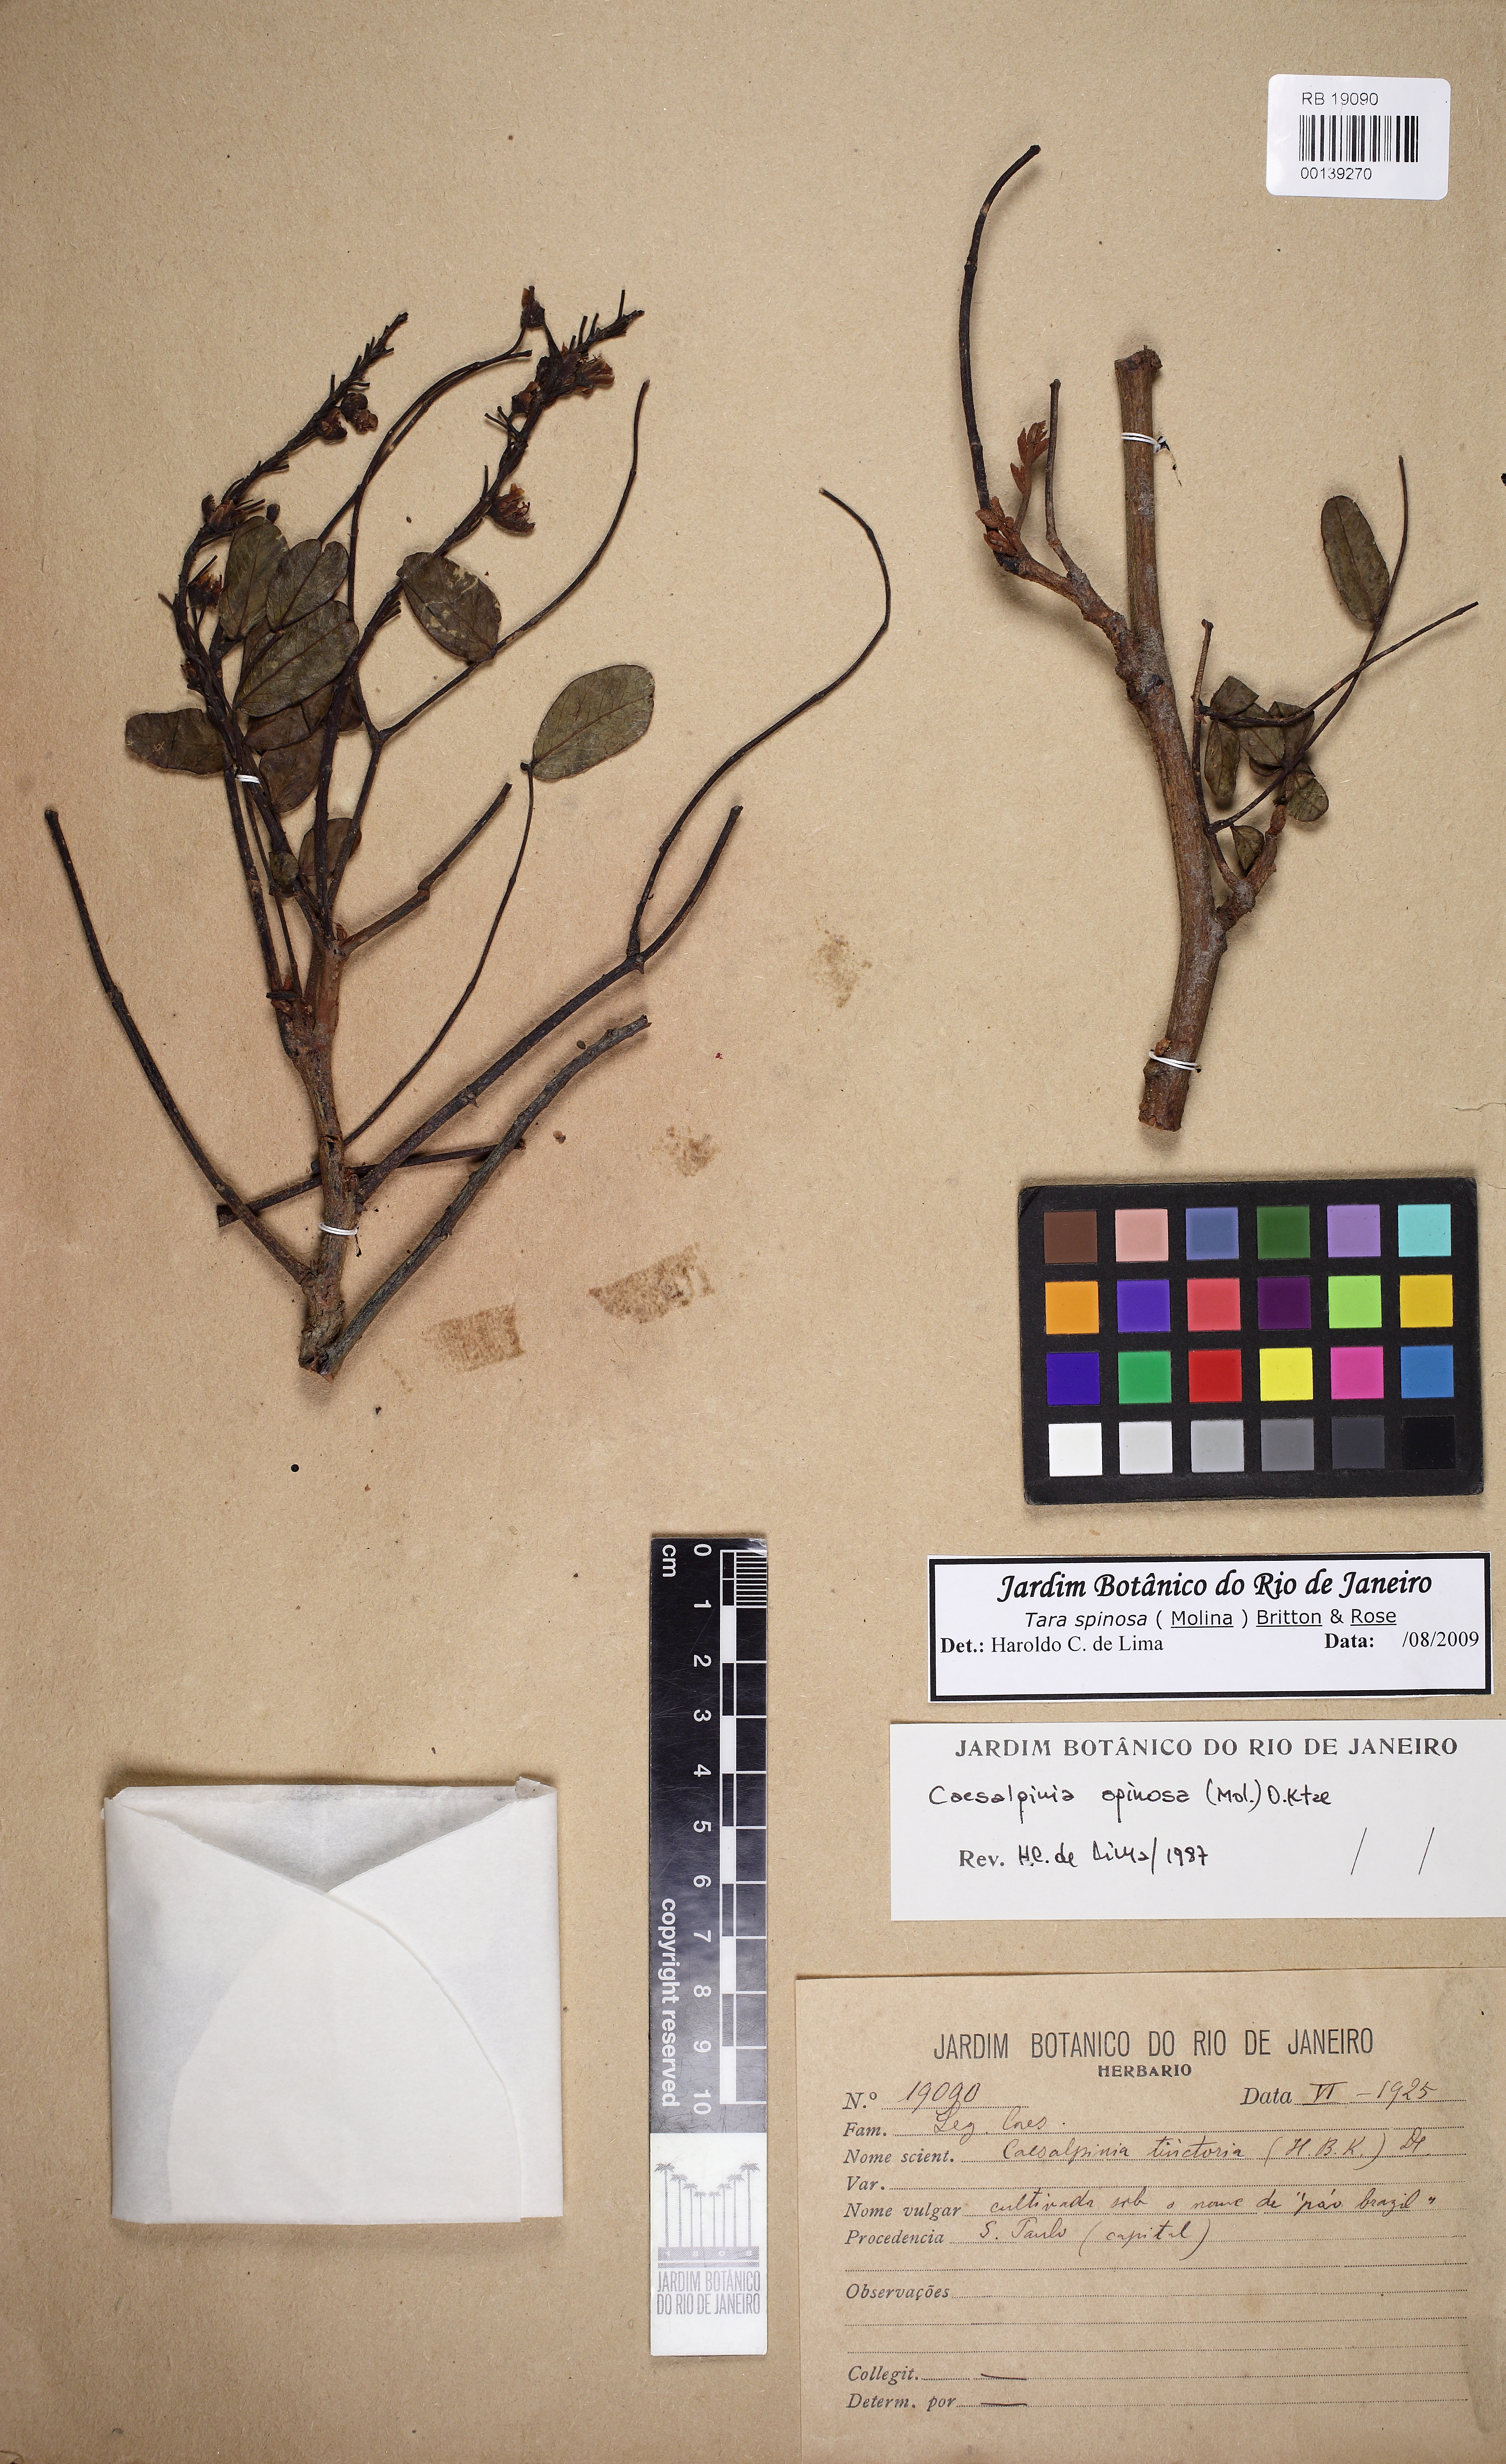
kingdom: Plantae
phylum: Tracheophyta
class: Magnoliopsida
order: Fabales
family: Fabaceae
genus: Tara
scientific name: Tara spinosa
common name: Spiny holdback
